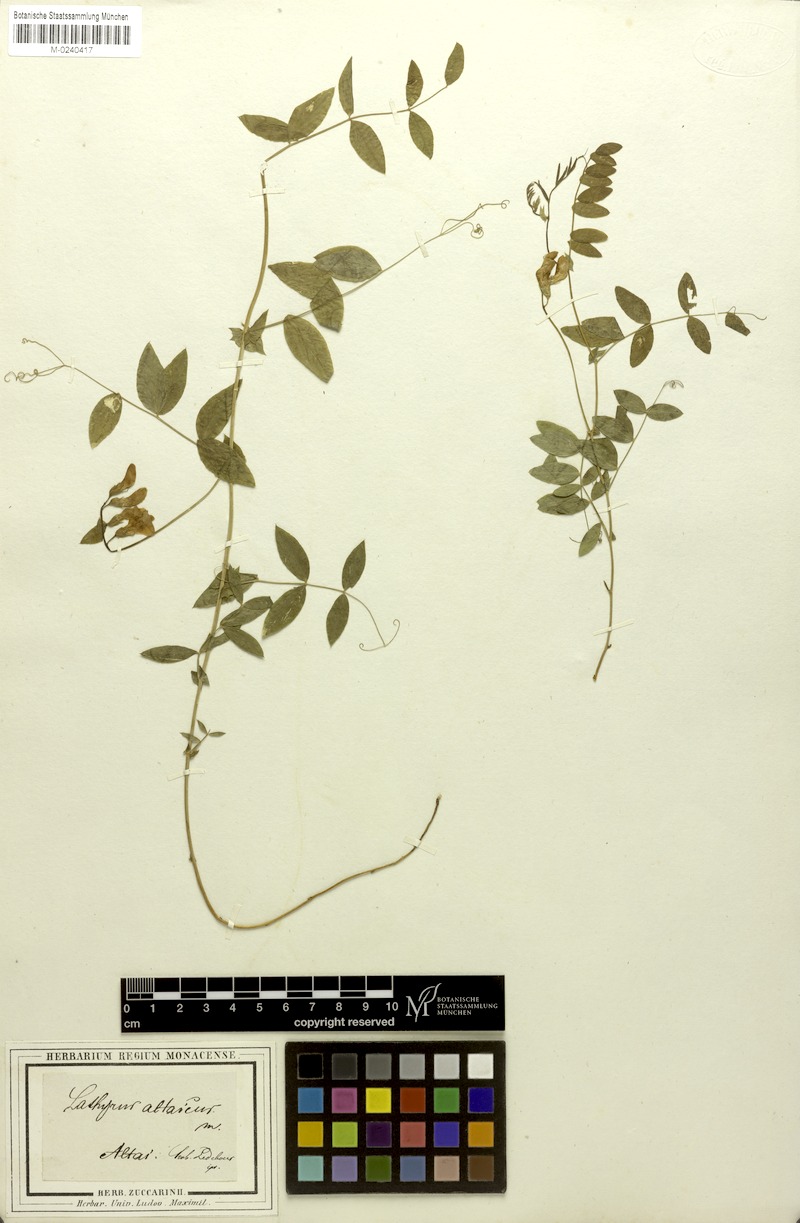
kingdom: Plantae
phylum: Tracheophyta
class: Magnoliopsida
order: Fabales
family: Fabaceae
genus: Lathyrus
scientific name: Lathyrus humilis
